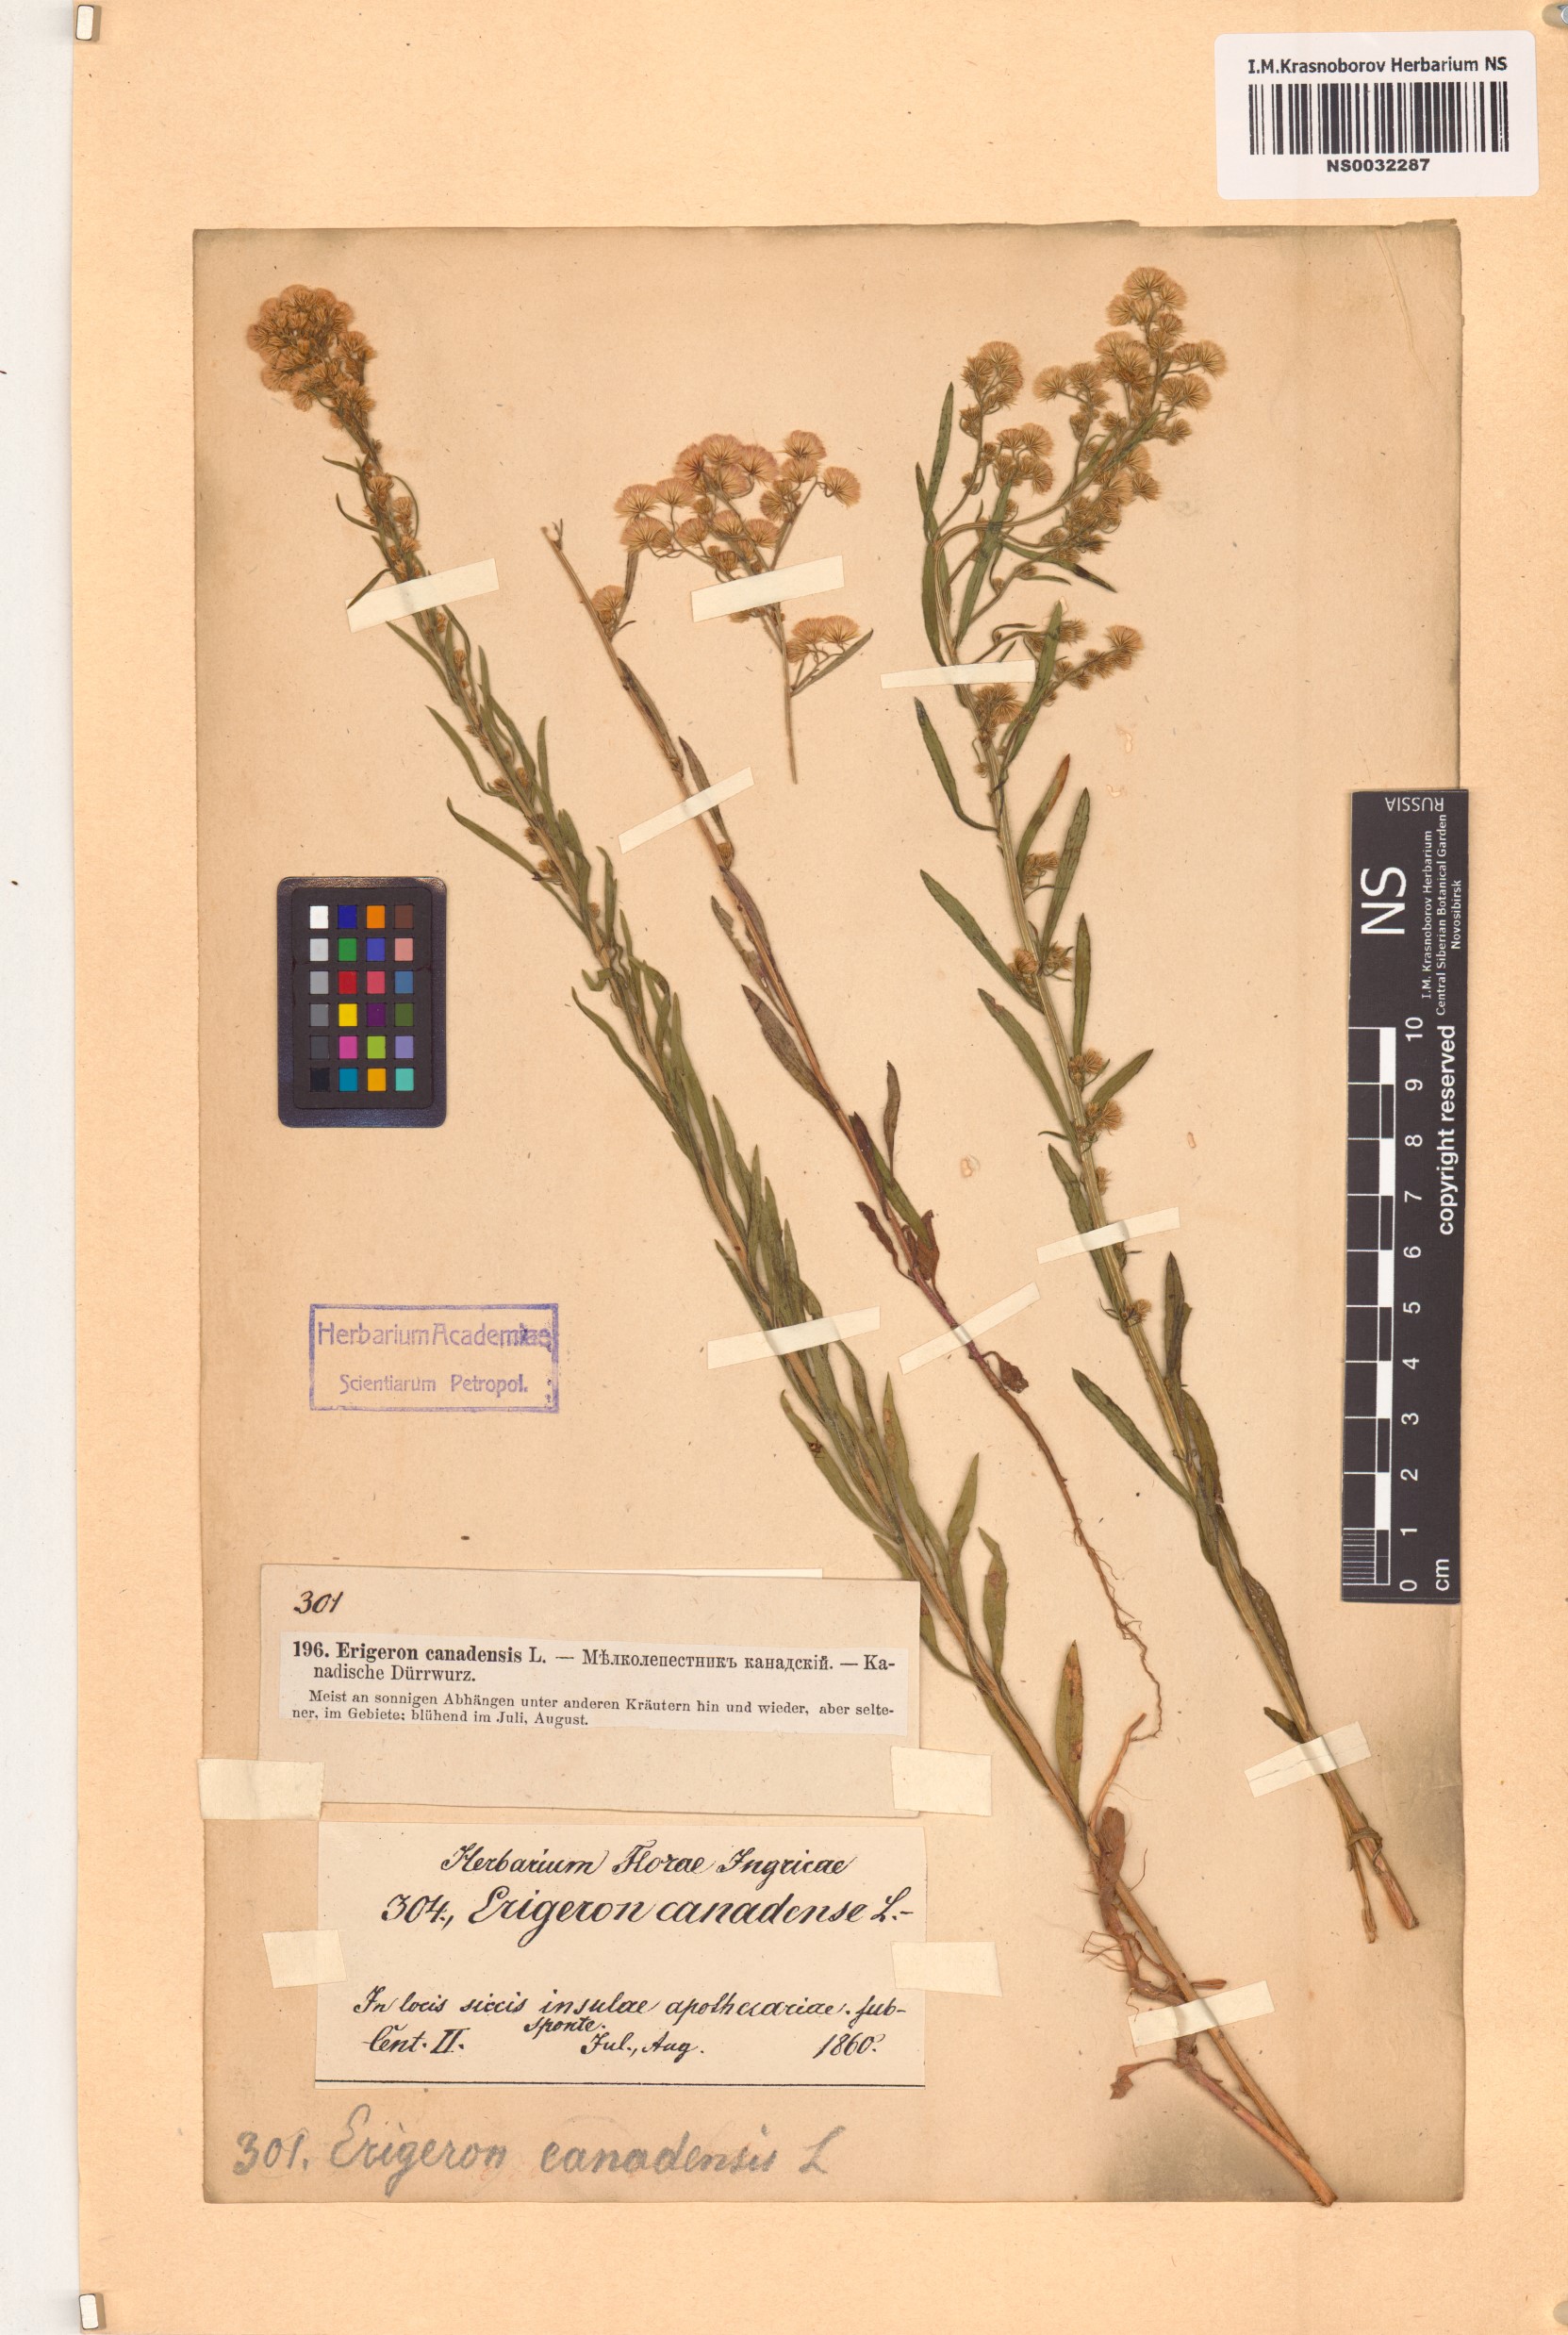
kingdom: Plantae
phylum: Tracheophyta
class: Magnoliopsida
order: Asterales
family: Asteraceae
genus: Erigeron
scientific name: Erigeron canadensis
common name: Canadian fleabane
